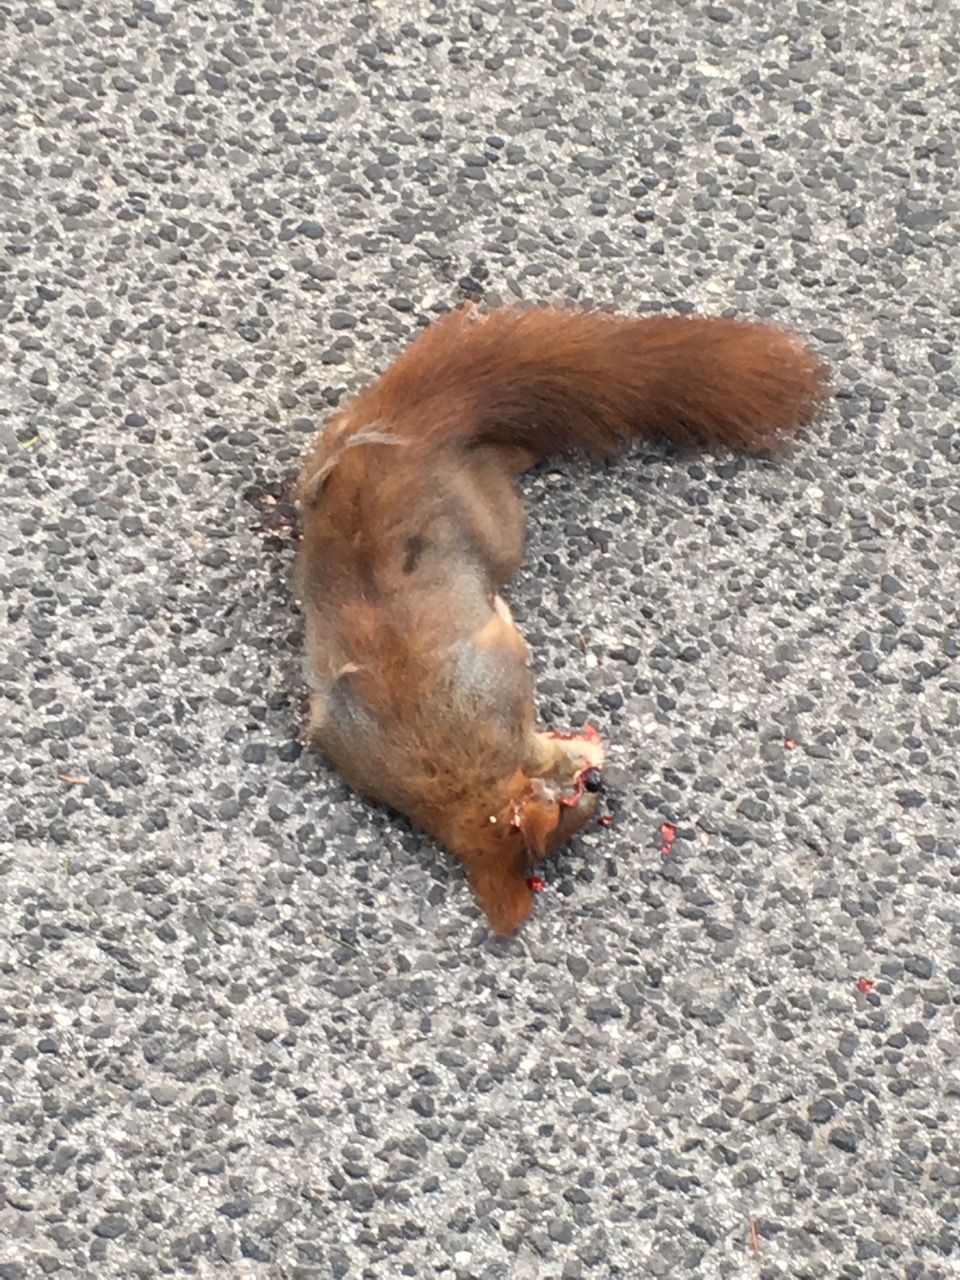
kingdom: Animalia
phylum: Chordata
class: Mammalia
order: Rodentia
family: Sciuridae
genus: Sciurus
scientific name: Sciurus vulgaris
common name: Eurasian red squirrel
